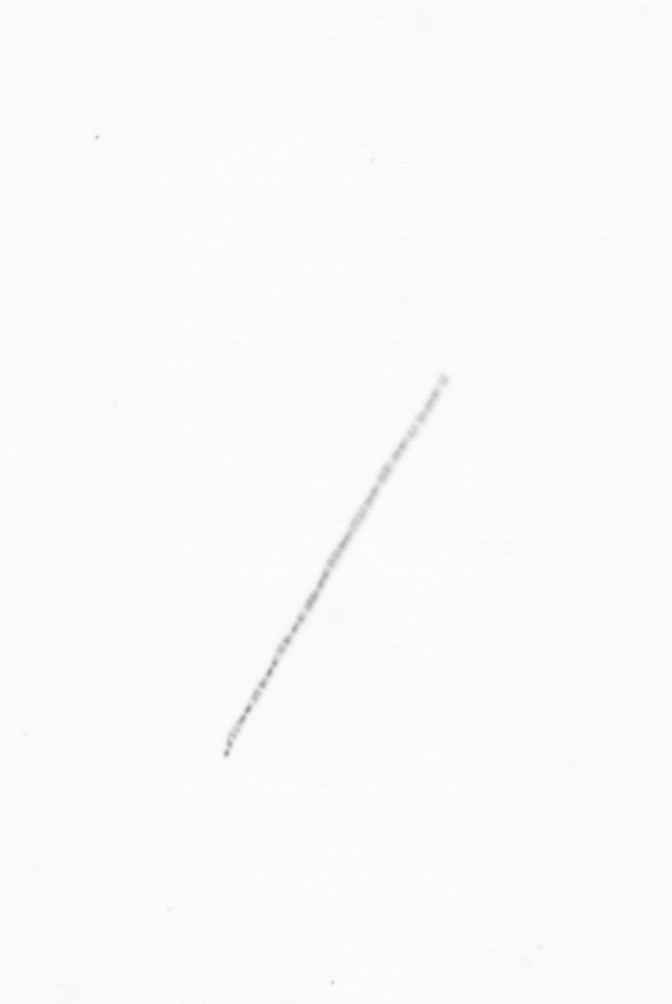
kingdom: Chromista
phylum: Ochrophyta
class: Bacillariophyceae
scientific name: Bacillariophyceae
